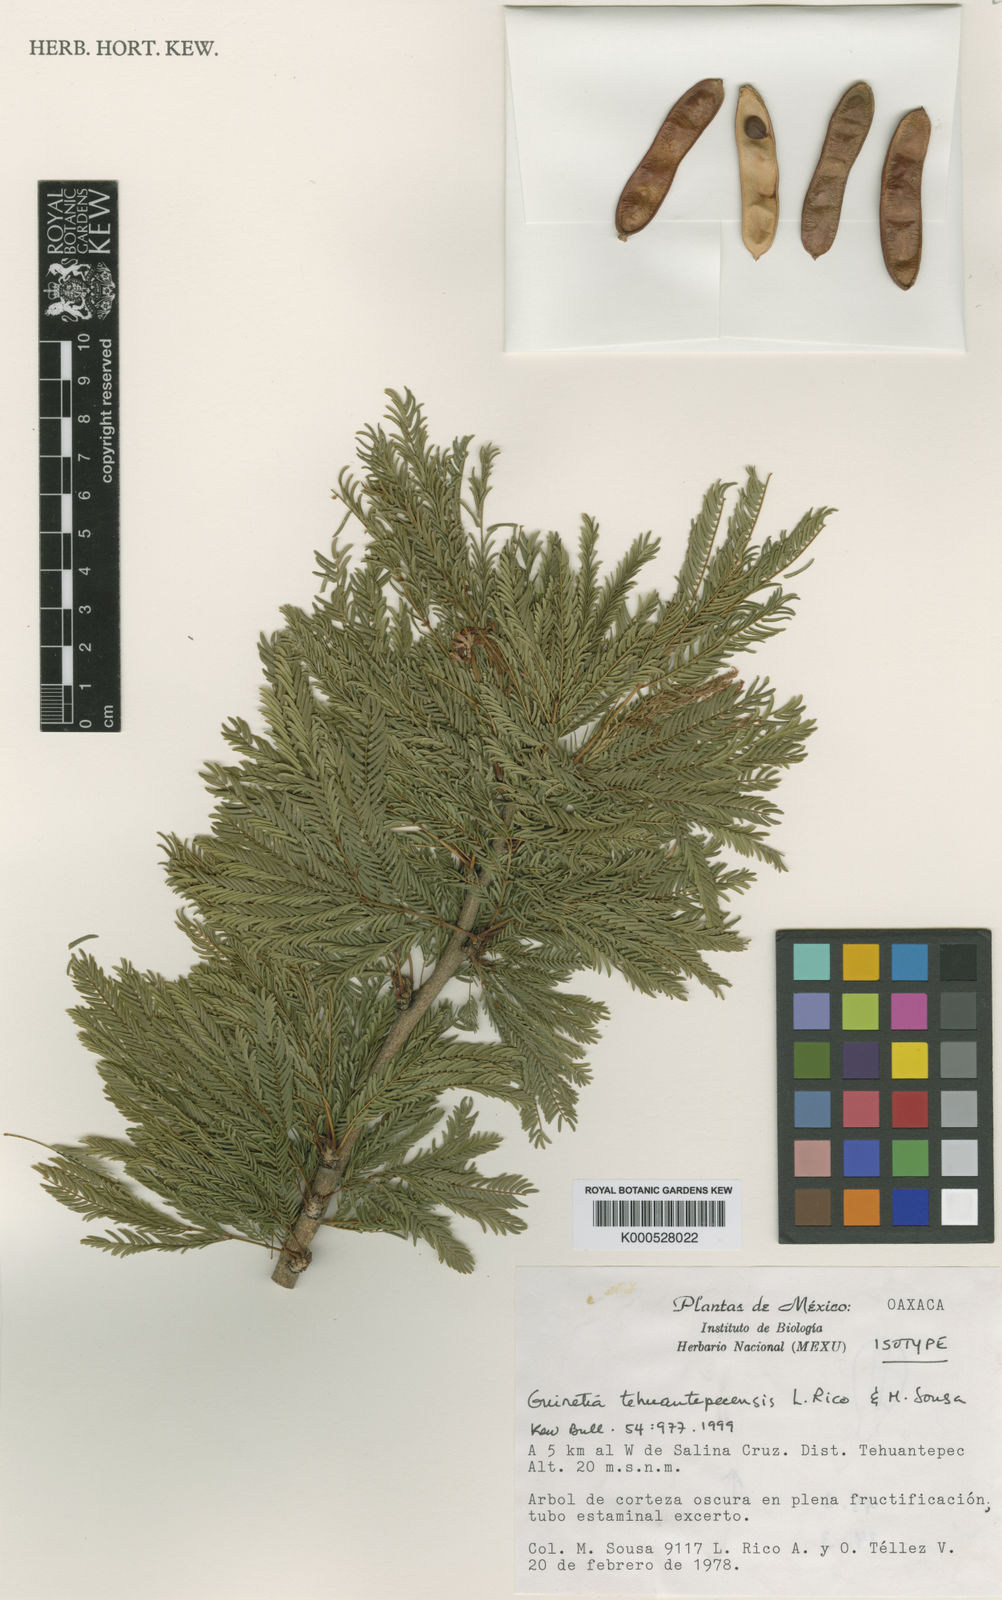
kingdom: Plantae
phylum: Tracheophyta
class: Magnoliopsida
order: Fabales
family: Fabaceae
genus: Calliandra
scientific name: Calliandra tehuantepecensis
